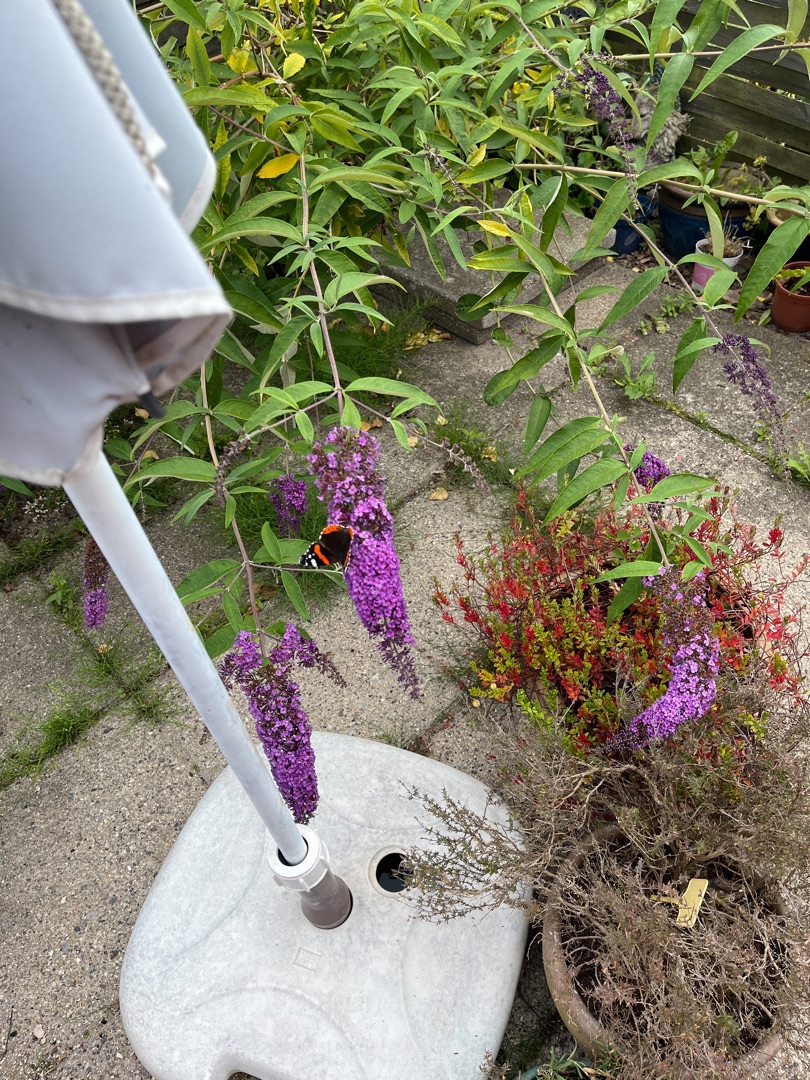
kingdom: Animalia
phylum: Arthropoda
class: Insecta
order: Lepidoptera
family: Nymphalidae
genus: Vanessa
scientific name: Vanessa atalanta
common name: Admiral
